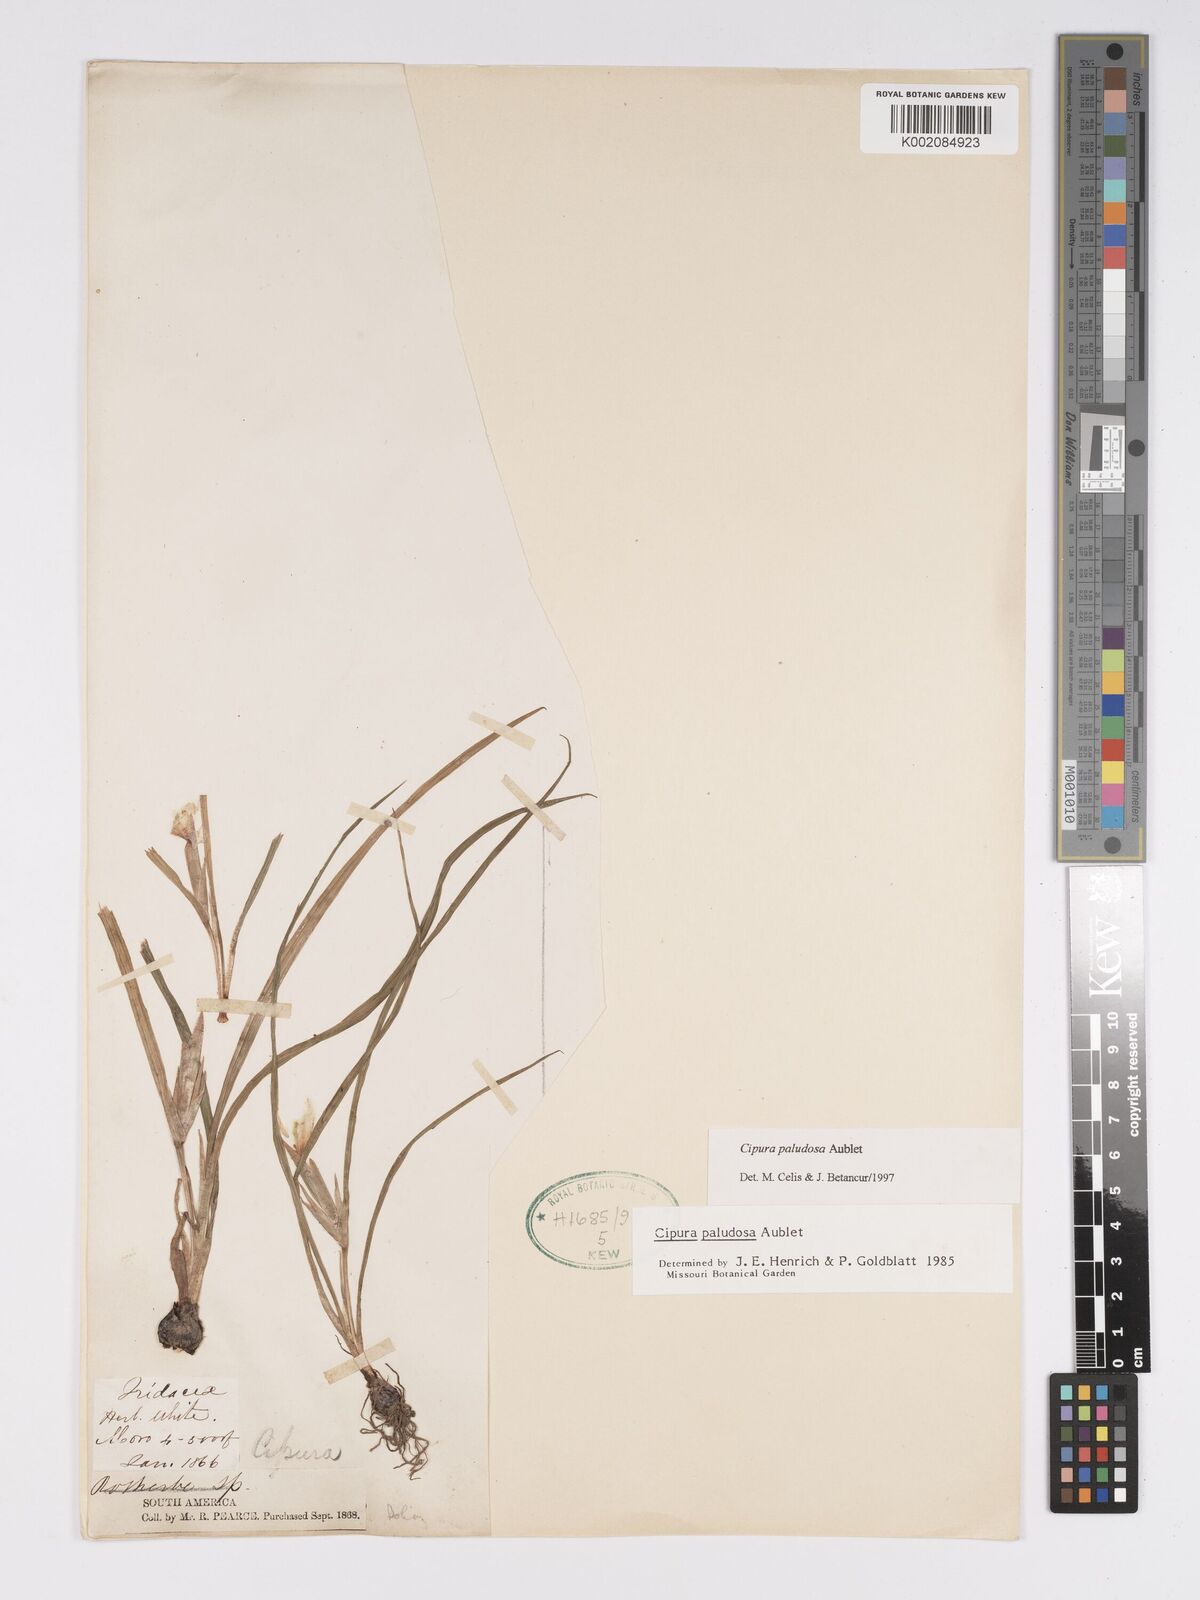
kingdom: Plantae
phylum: Tracheophyta
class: Liliopsida
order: Asparagales
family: Iridaceae
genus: Cipura
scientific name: Cipura paludosa
